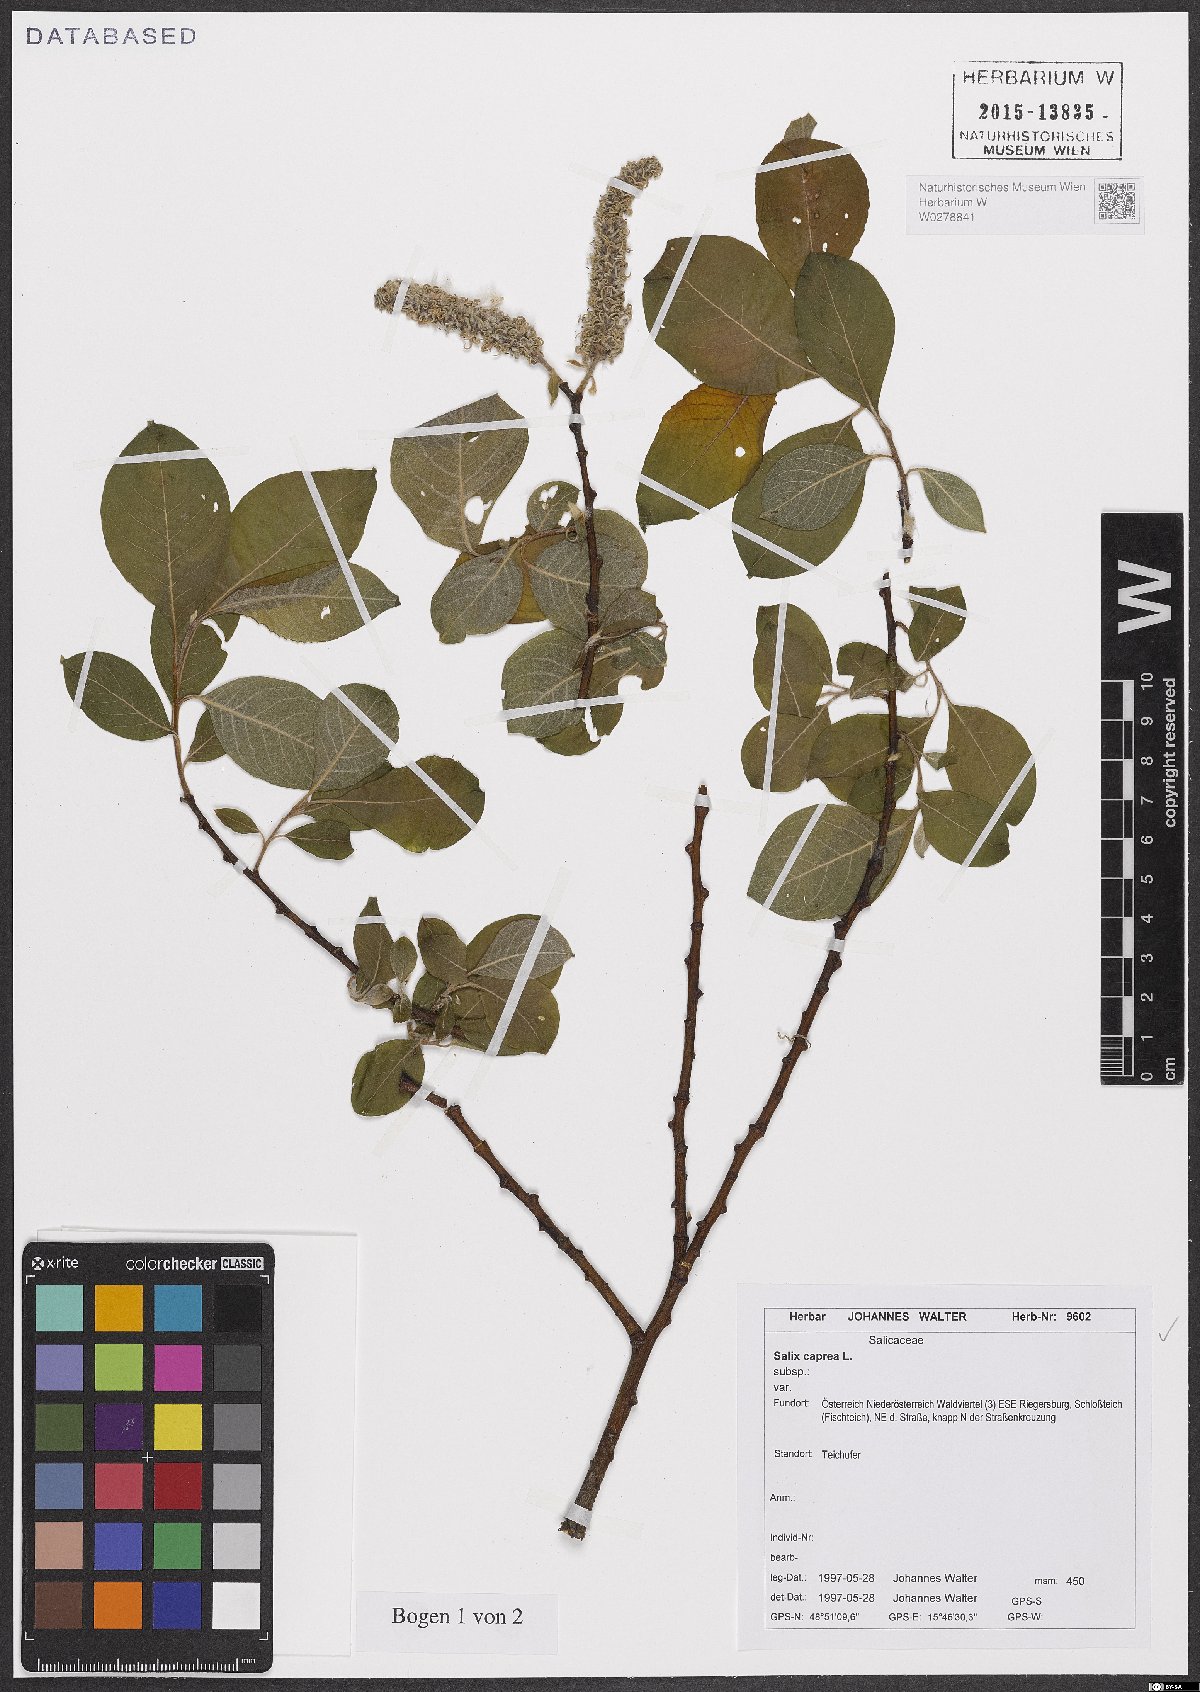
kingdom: Plantae
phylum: Tracheophyta
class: Magnoliopsida
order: Malpighiales
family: Salicaceae
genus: Salix
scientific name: Salix caprea
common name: Goat willow
